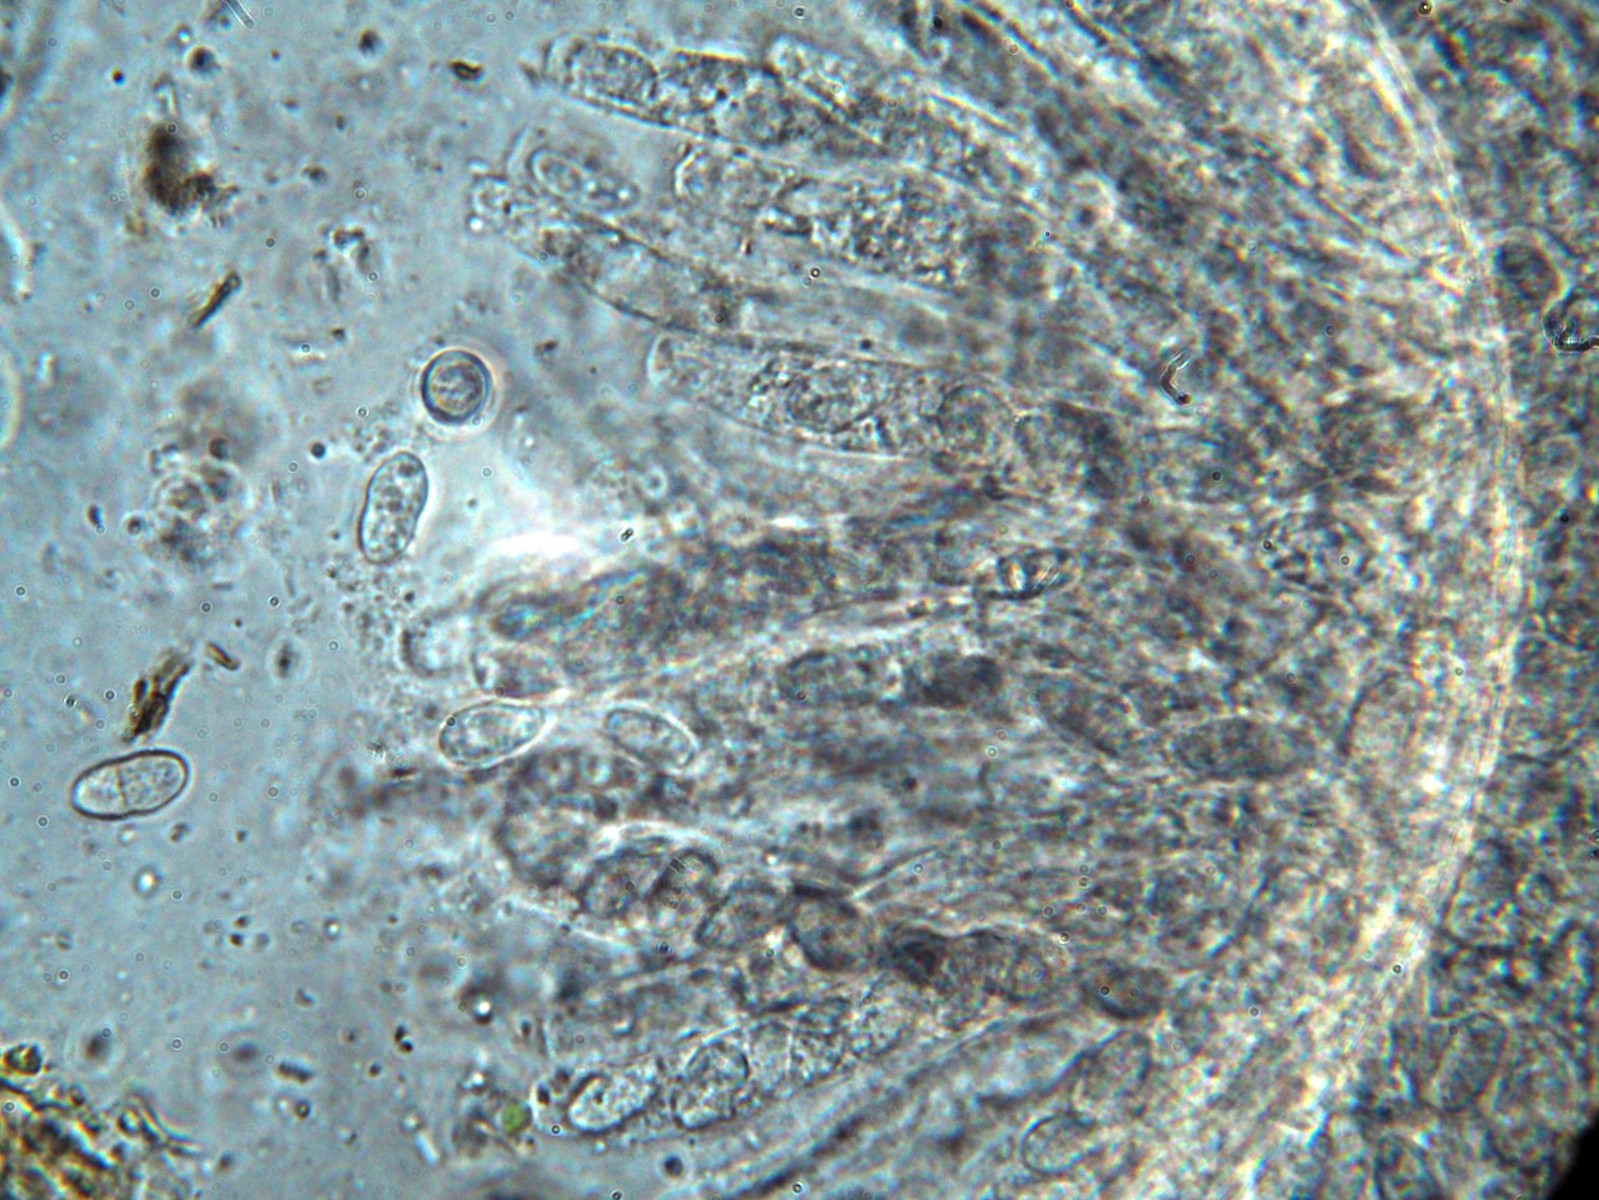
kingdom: Fungi
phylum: Ascomycota
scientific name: Ascomycota
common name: sæksvampe
